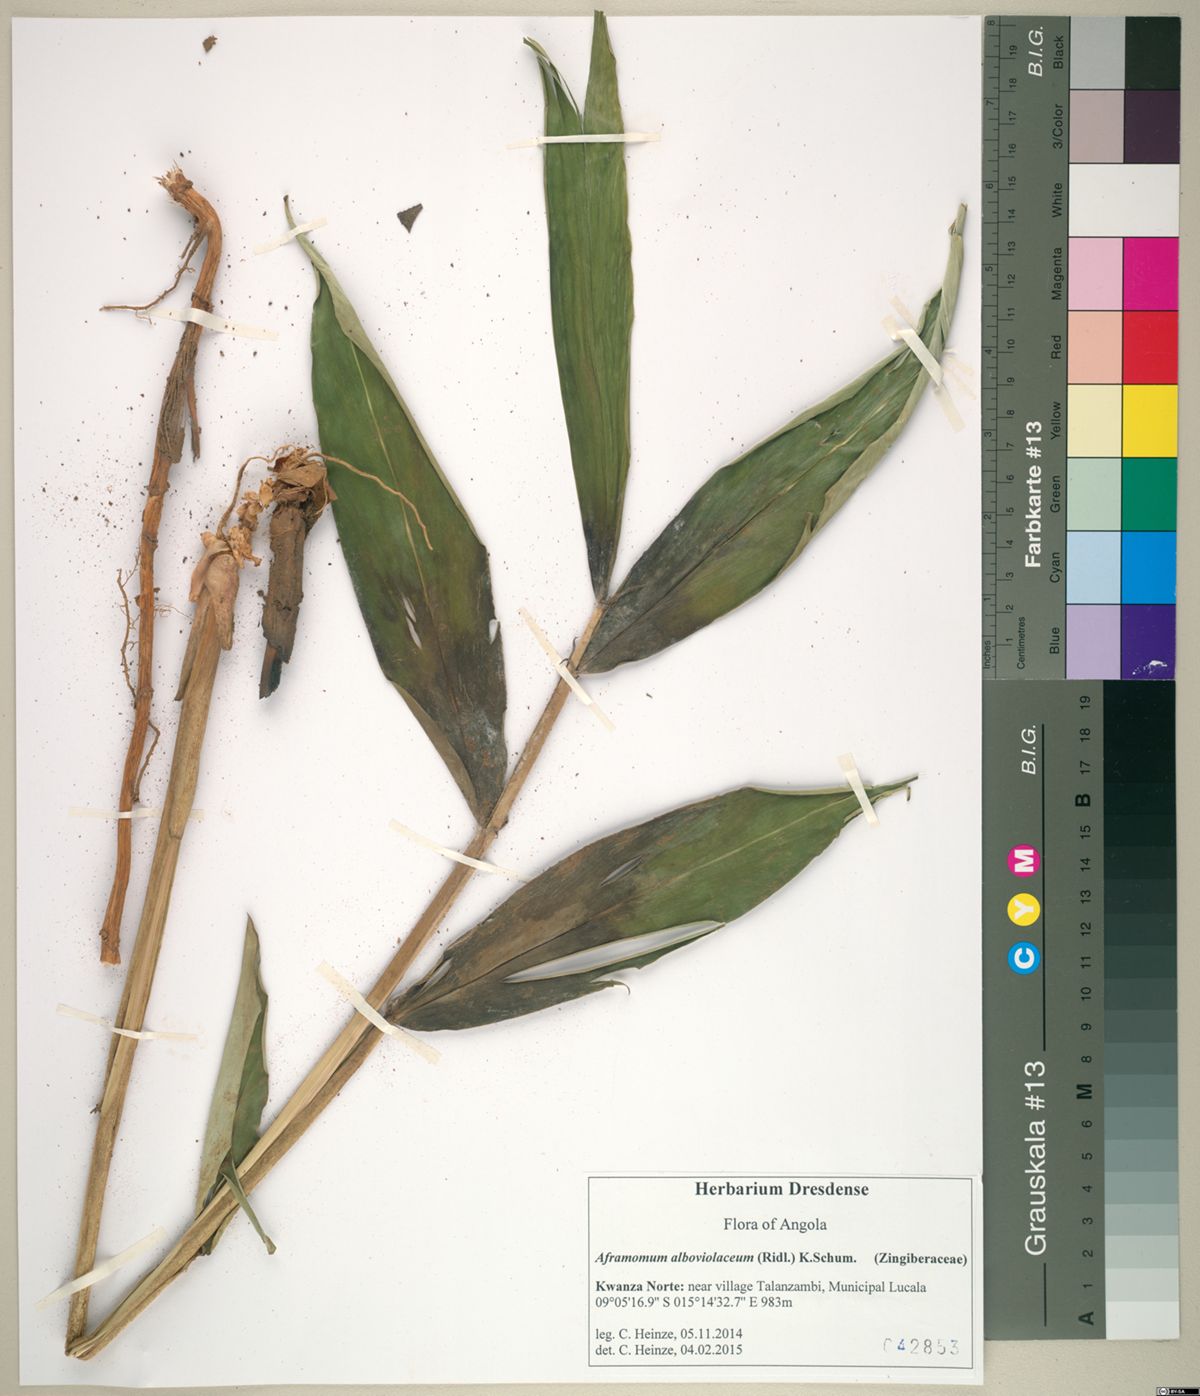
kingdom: Plantae
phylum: Tracheophyta
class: Liliopsida
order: Zingiberales
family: Zingiberaceae
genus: Aframomum
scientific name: Aframomum alboviolaceum
